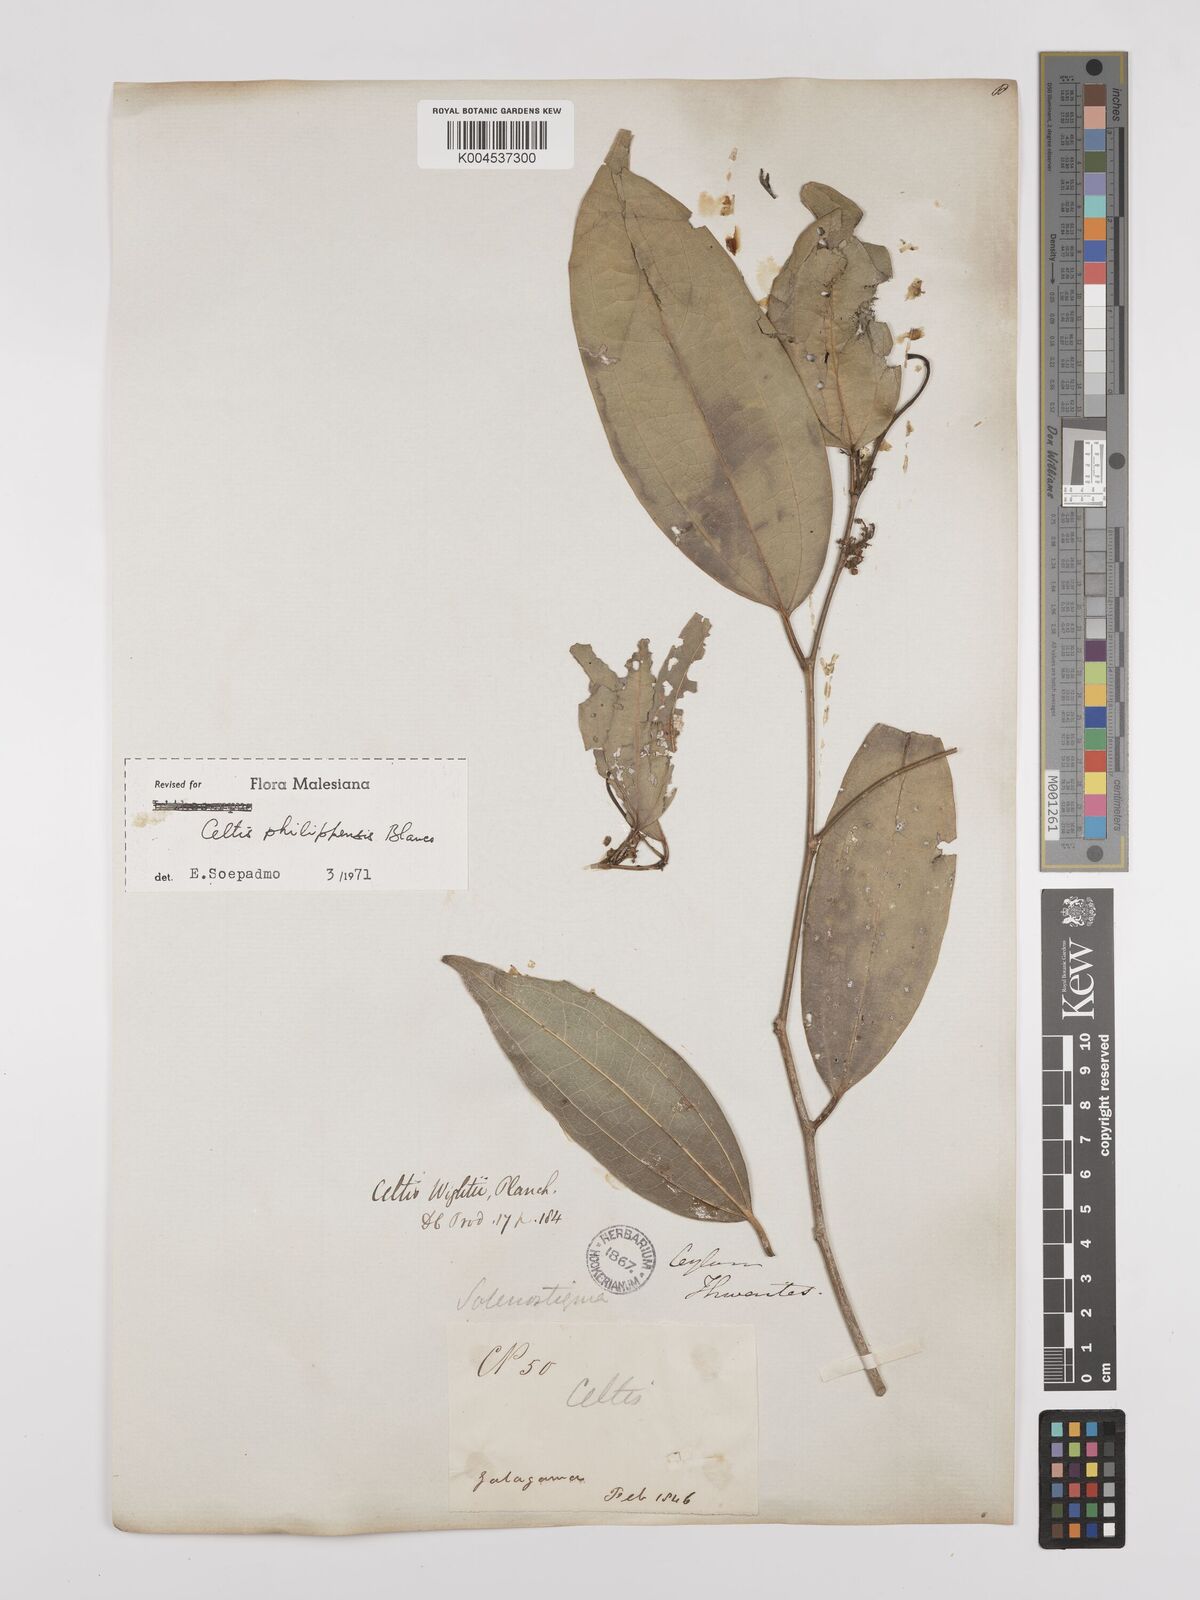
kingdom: Plantae
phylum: Tracheophyta
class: Magnoliopsida
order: Rosales
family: Cannabaceae
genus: Celtis
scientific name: Celtis philippensis
